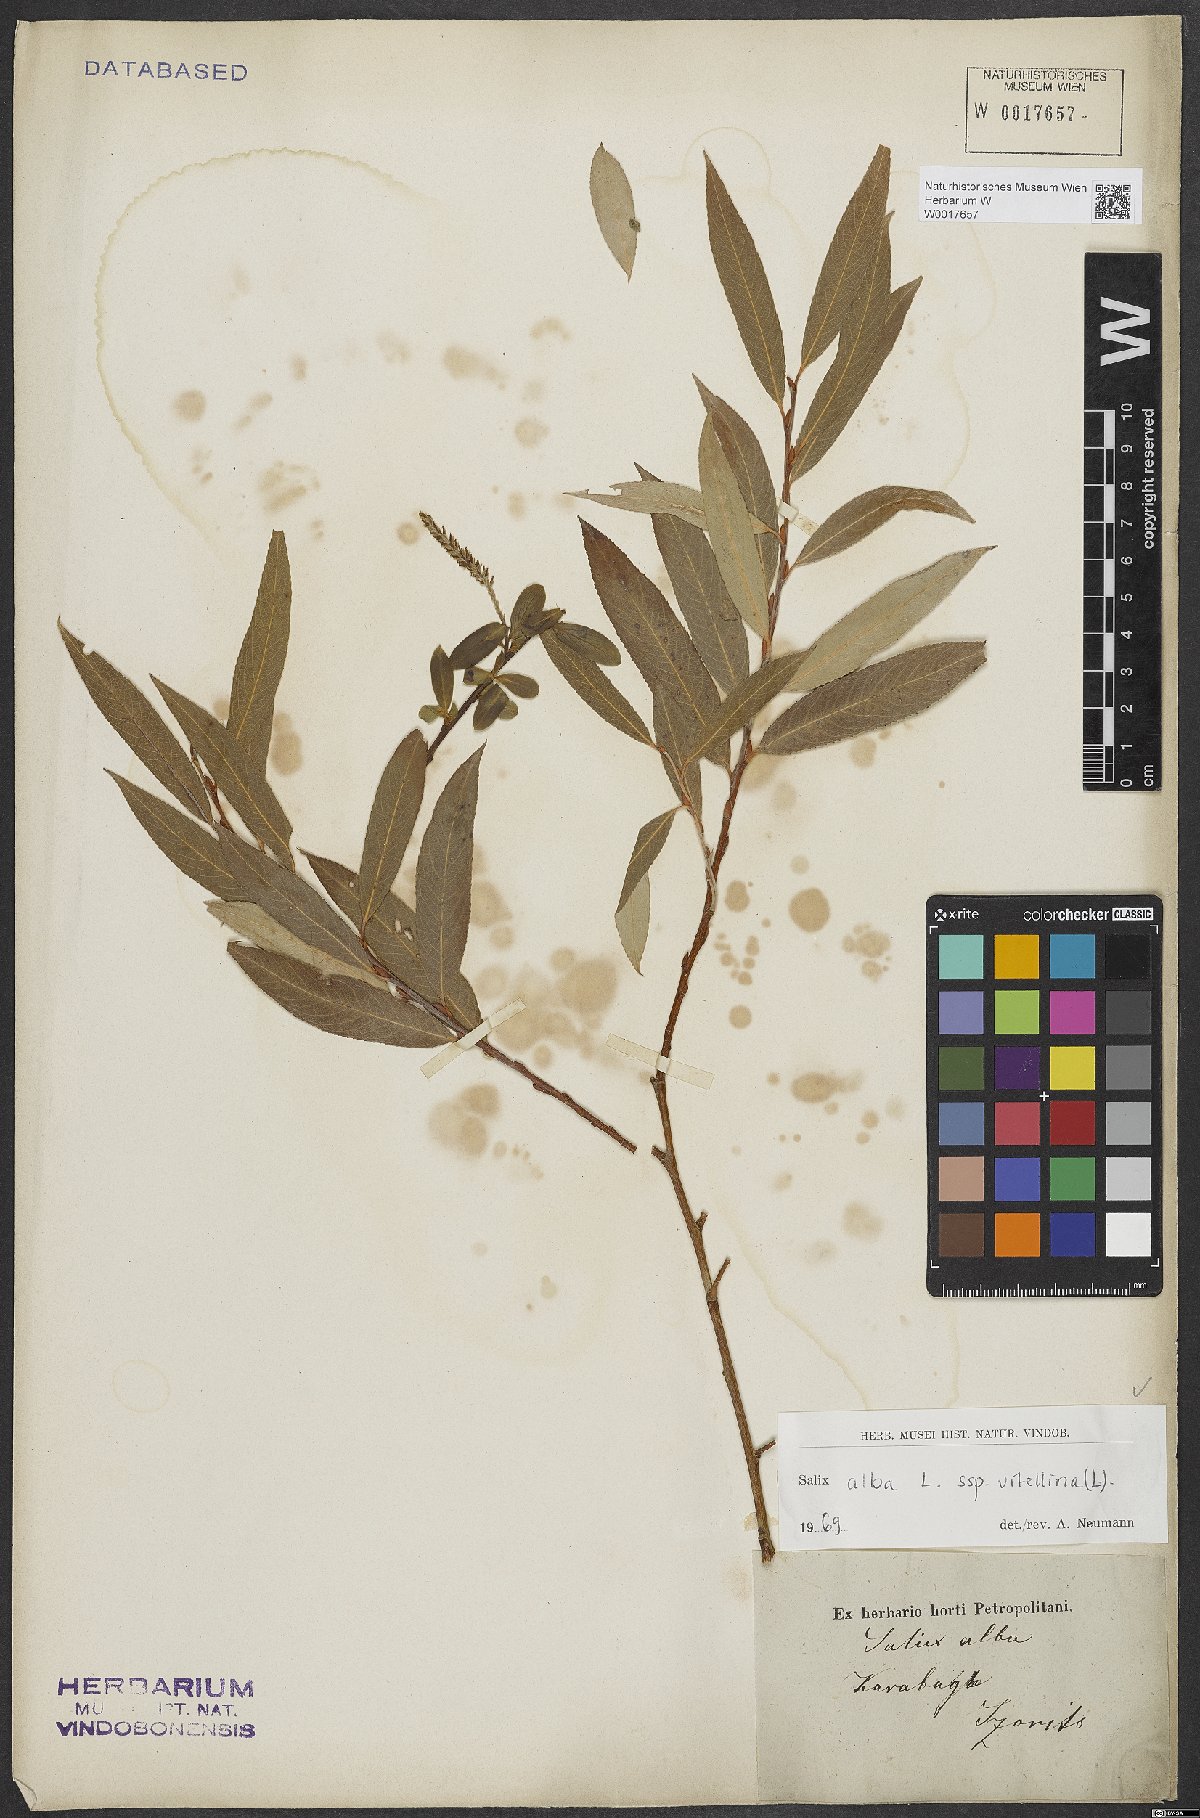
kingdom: Plantae
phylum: Tracheophyta
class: Magnoliopsida
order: Malpighiales
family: Salicaceae
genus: Salix
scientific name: Salix alba
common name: White willow
